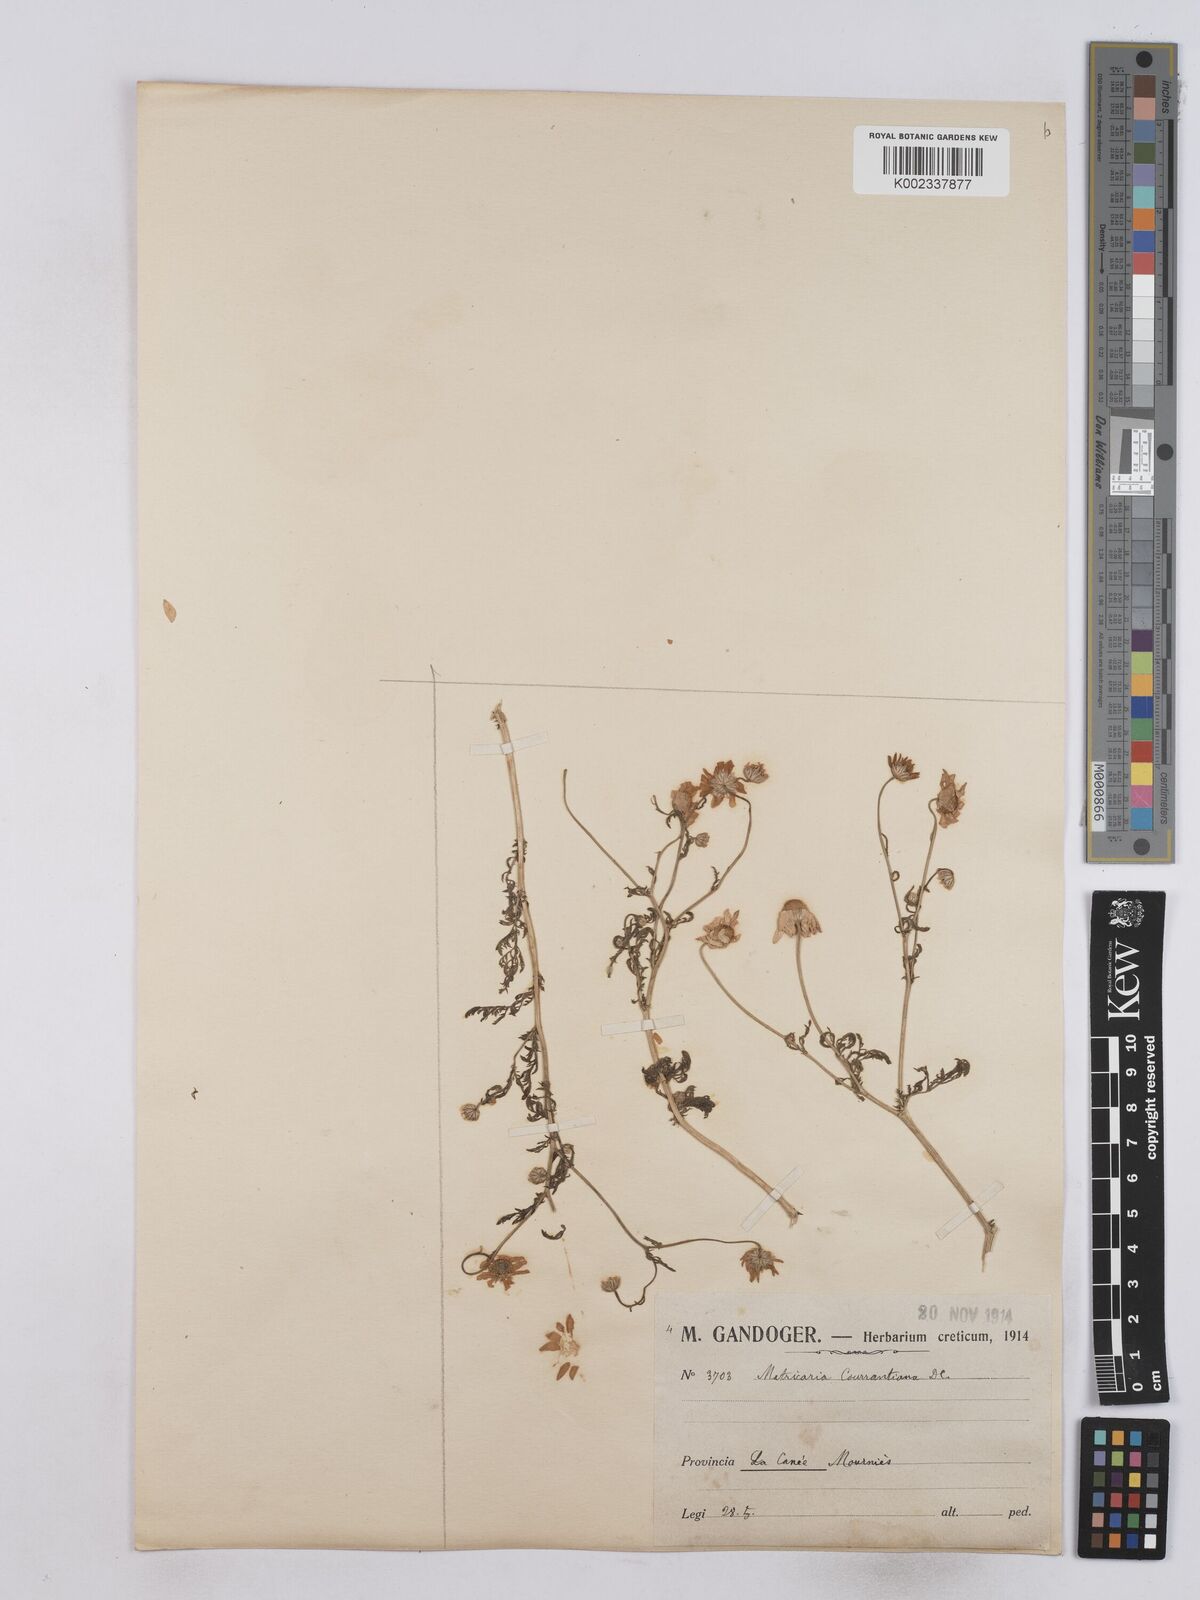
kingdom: Plantae
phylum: Tracheophyta
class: Magnoliopsida
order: Asterales
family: Asteraceae
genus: Matricaria
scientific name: Matricaria chamomilla
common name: Scented mayweed
